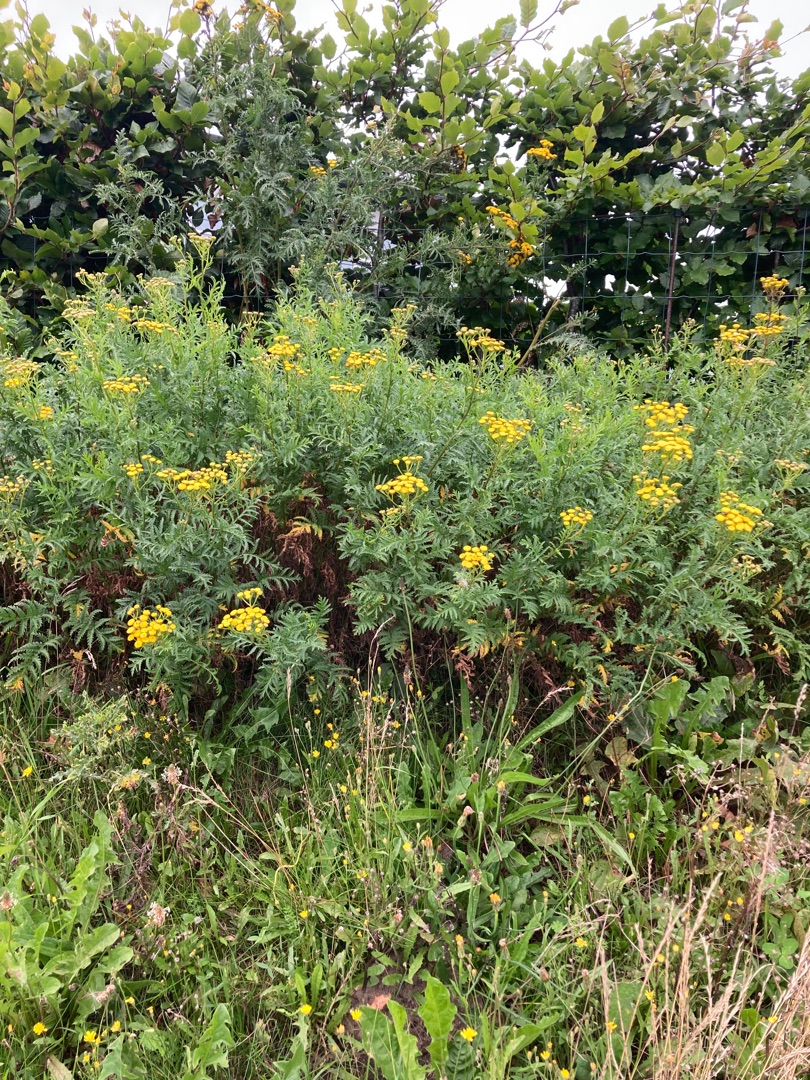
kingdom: Plantae
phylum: Tracheophyta
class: Magnoliopsida
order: Asterales
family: Asteraceae
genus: Tanacetum
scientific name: Tanacetum vulgare
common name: Rejnfan
